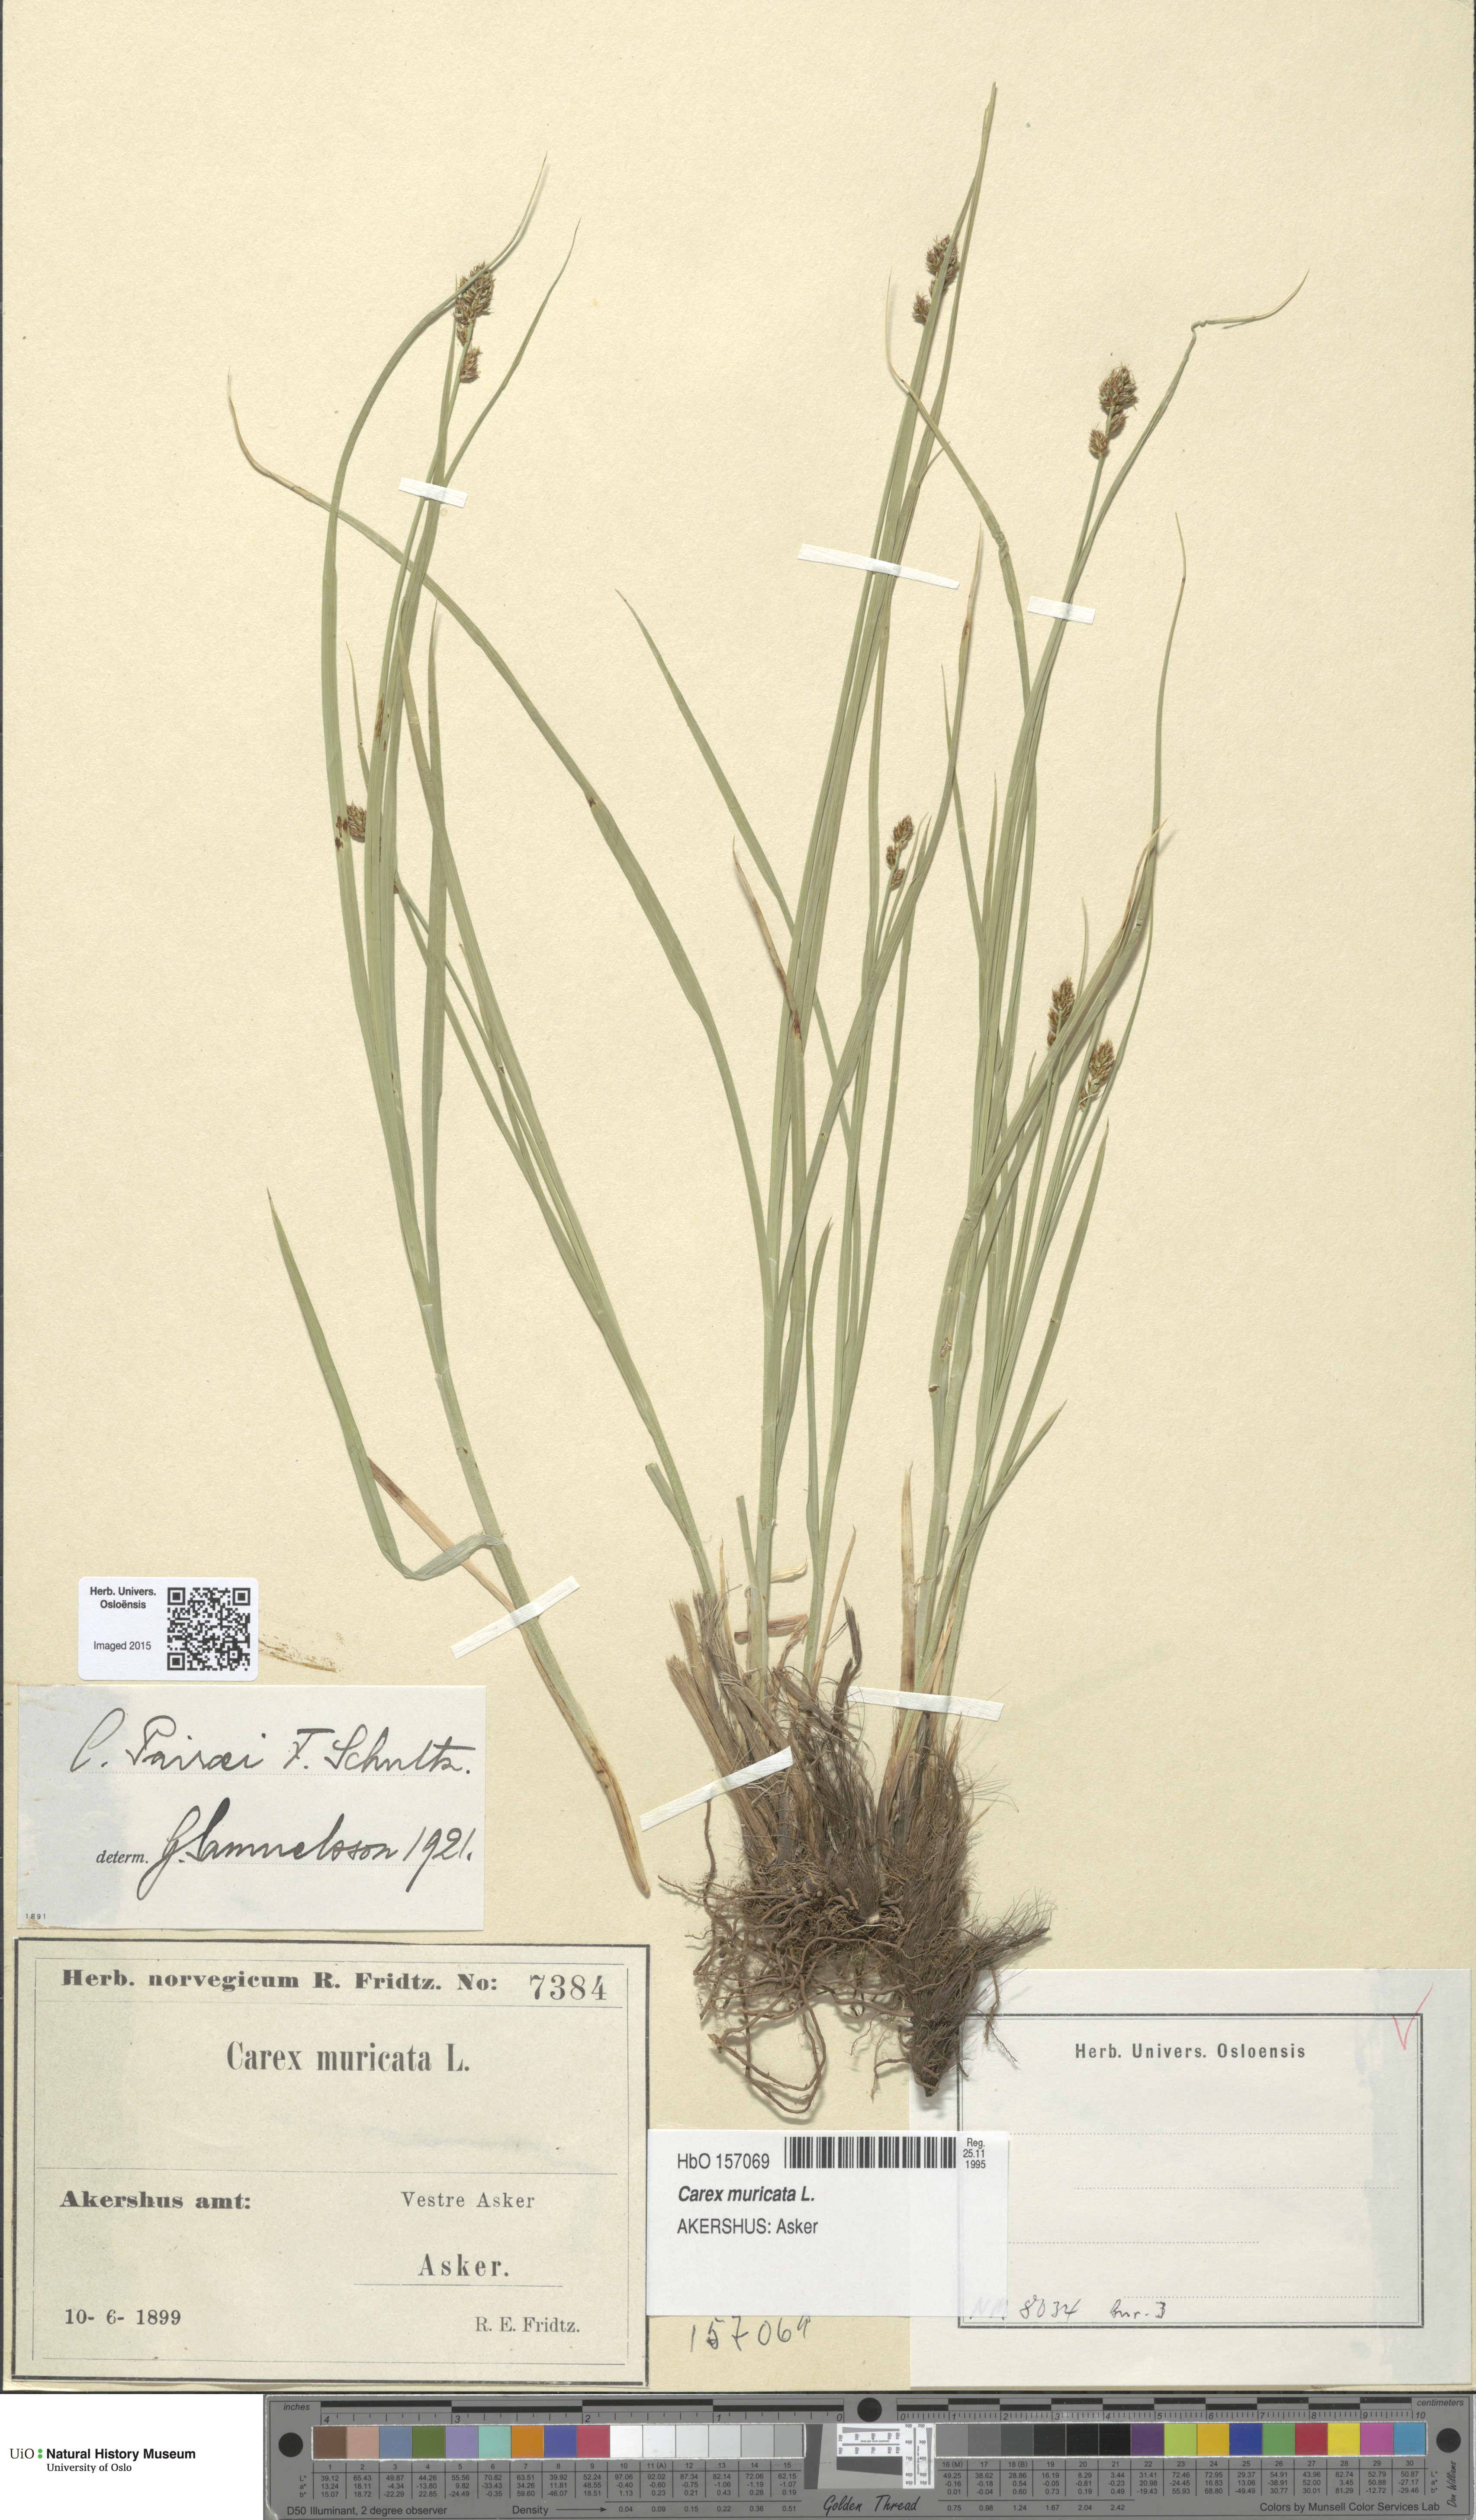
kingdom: Plantae
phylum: Tracheophyta
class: Liliopsida
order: Poales
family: Cyperaceae
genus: Carex
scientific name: Carex pairae
